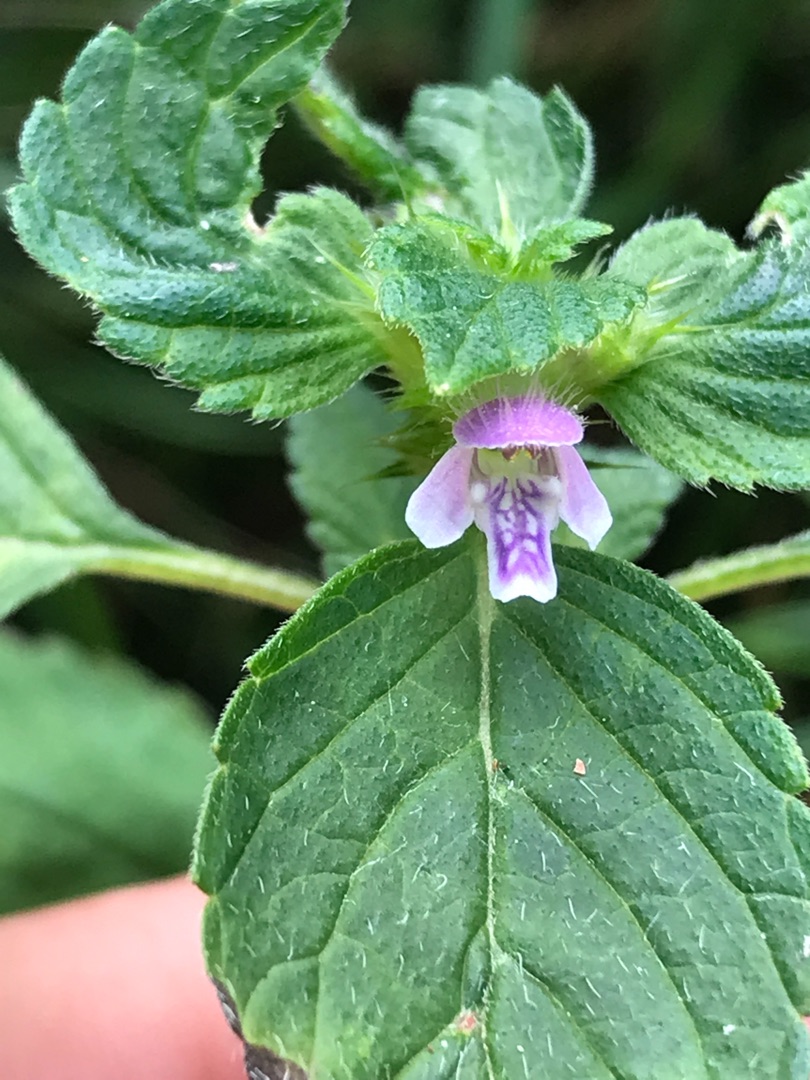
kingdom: Plantae
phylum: Tracheophyta
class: Magnoliopsida
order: Lamiales
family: Lamiaceae
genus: Galeopsis
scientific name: Galeopsis bifida
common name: Skov-hanekro
